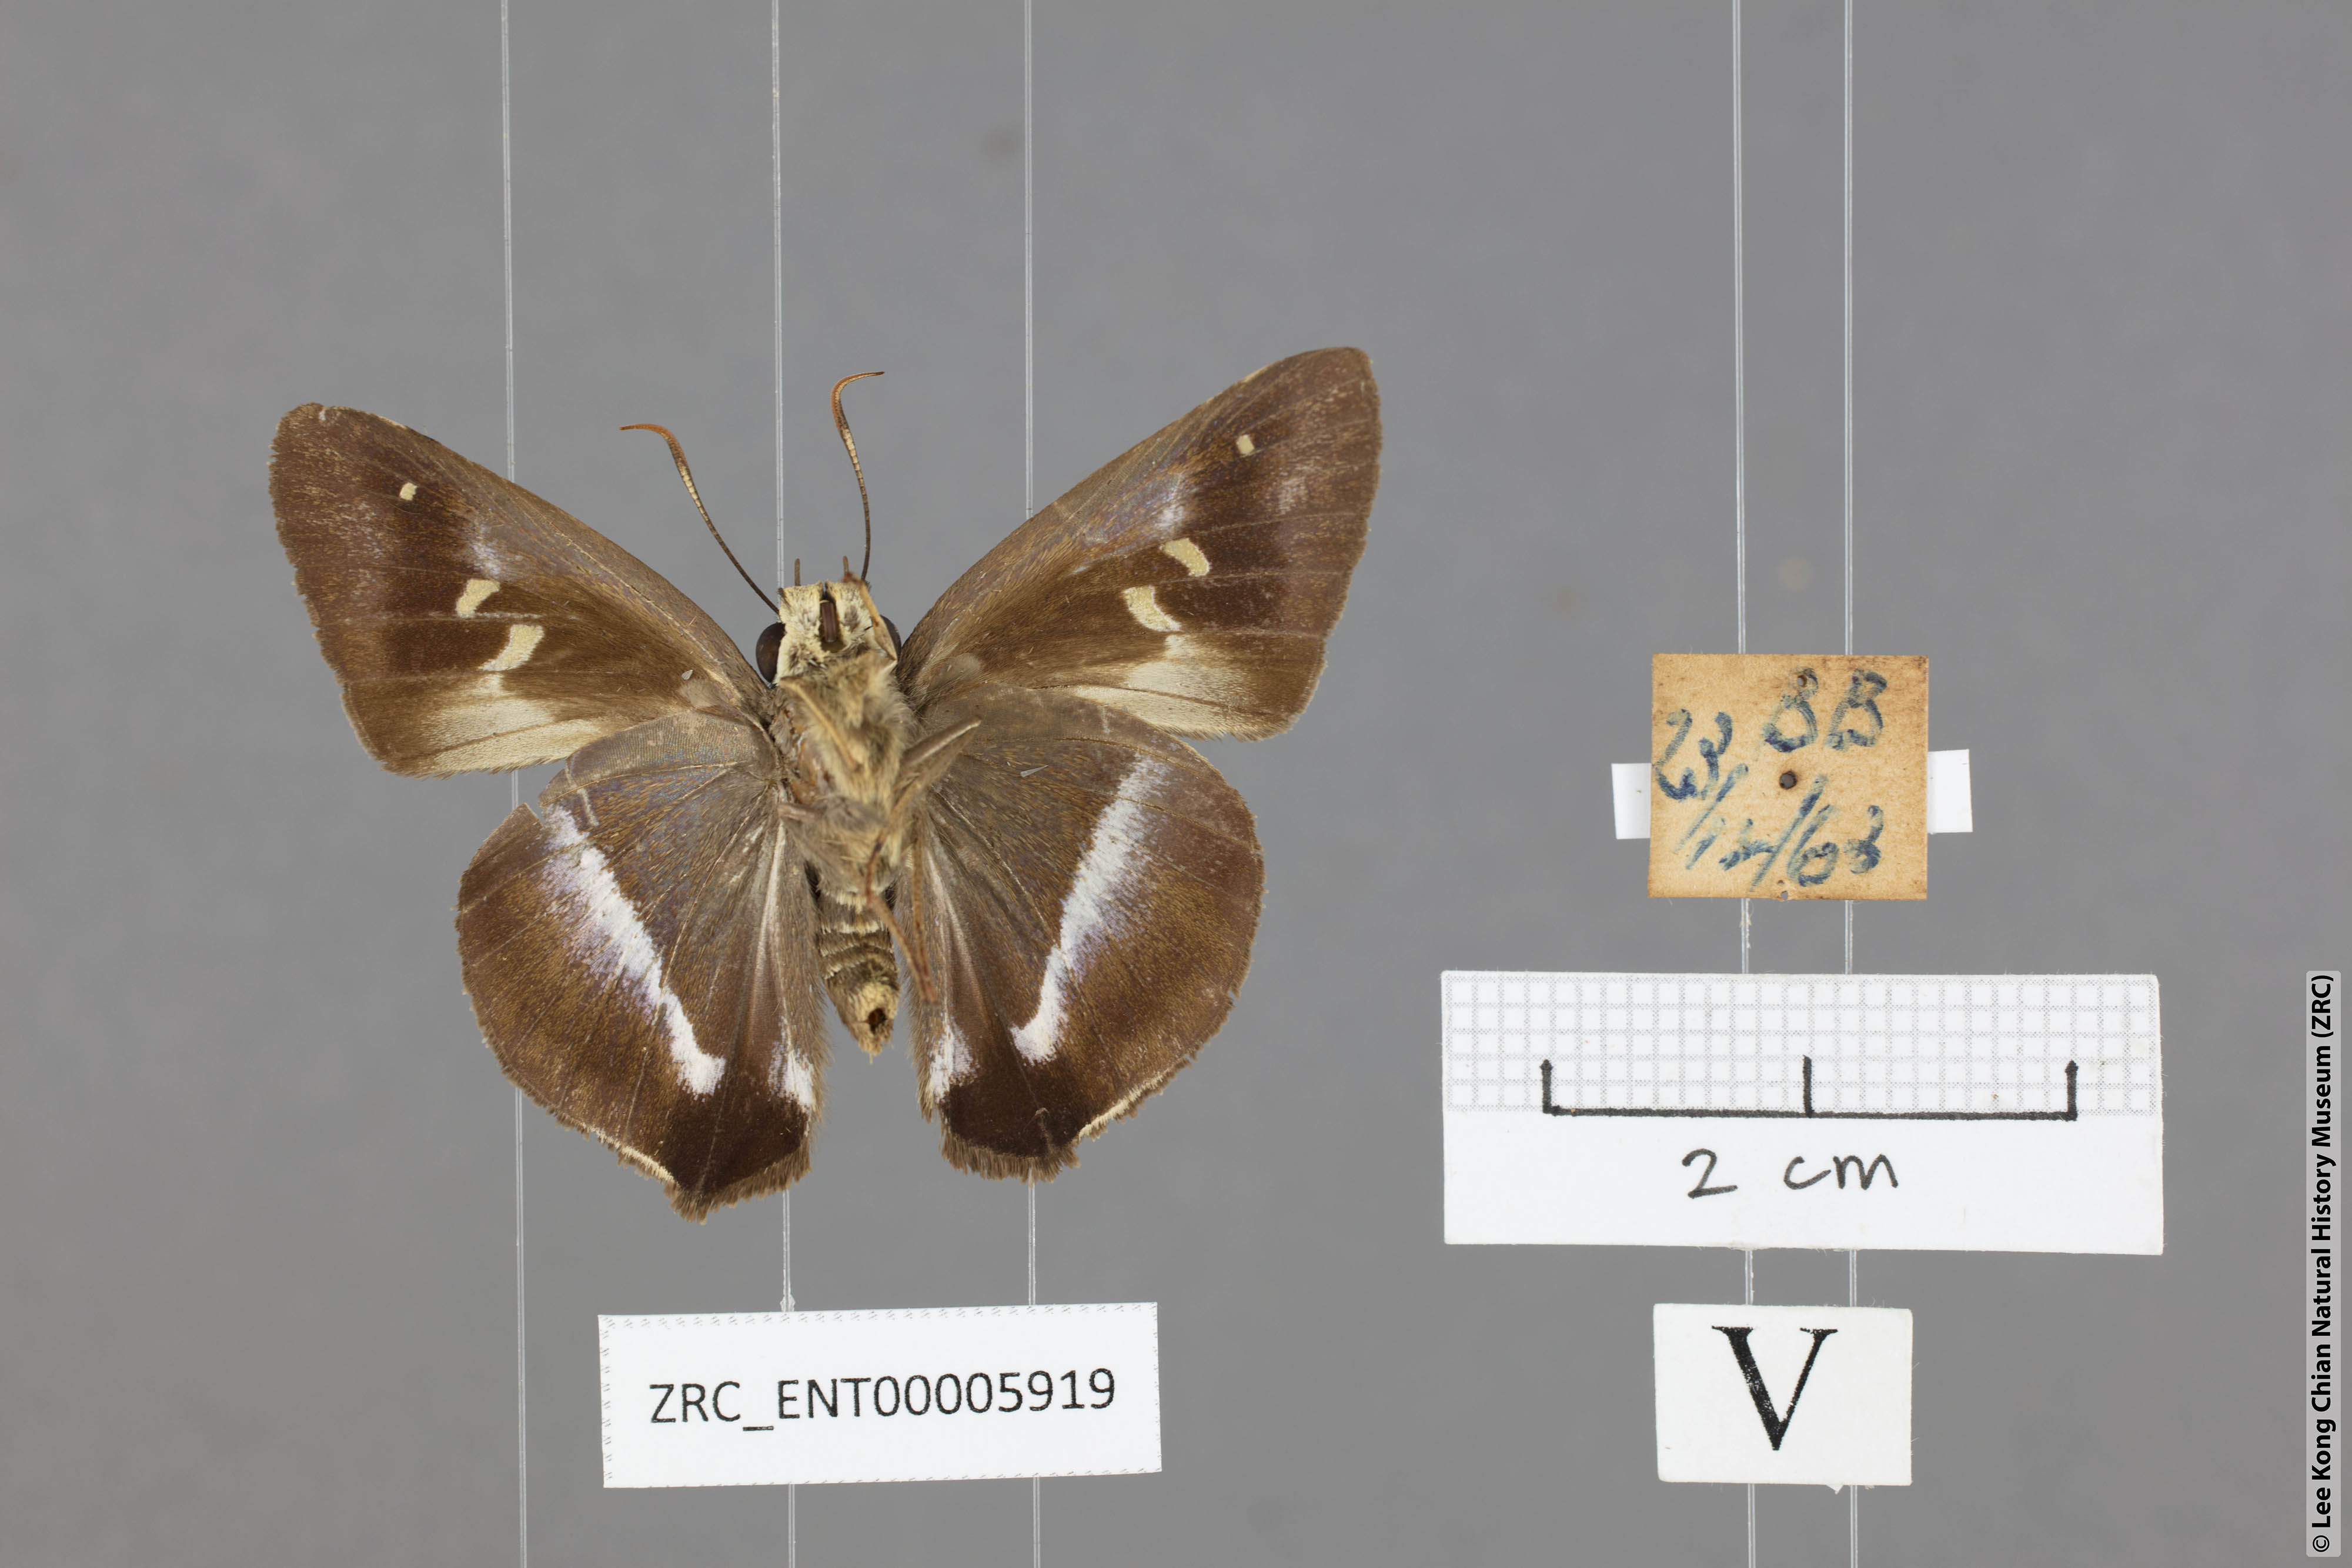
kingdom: Animalia
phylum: Arthropoda
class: Insecta
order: Lepidoptera
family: Hesperiidae
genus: Hasora
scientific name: Hasora vitta
